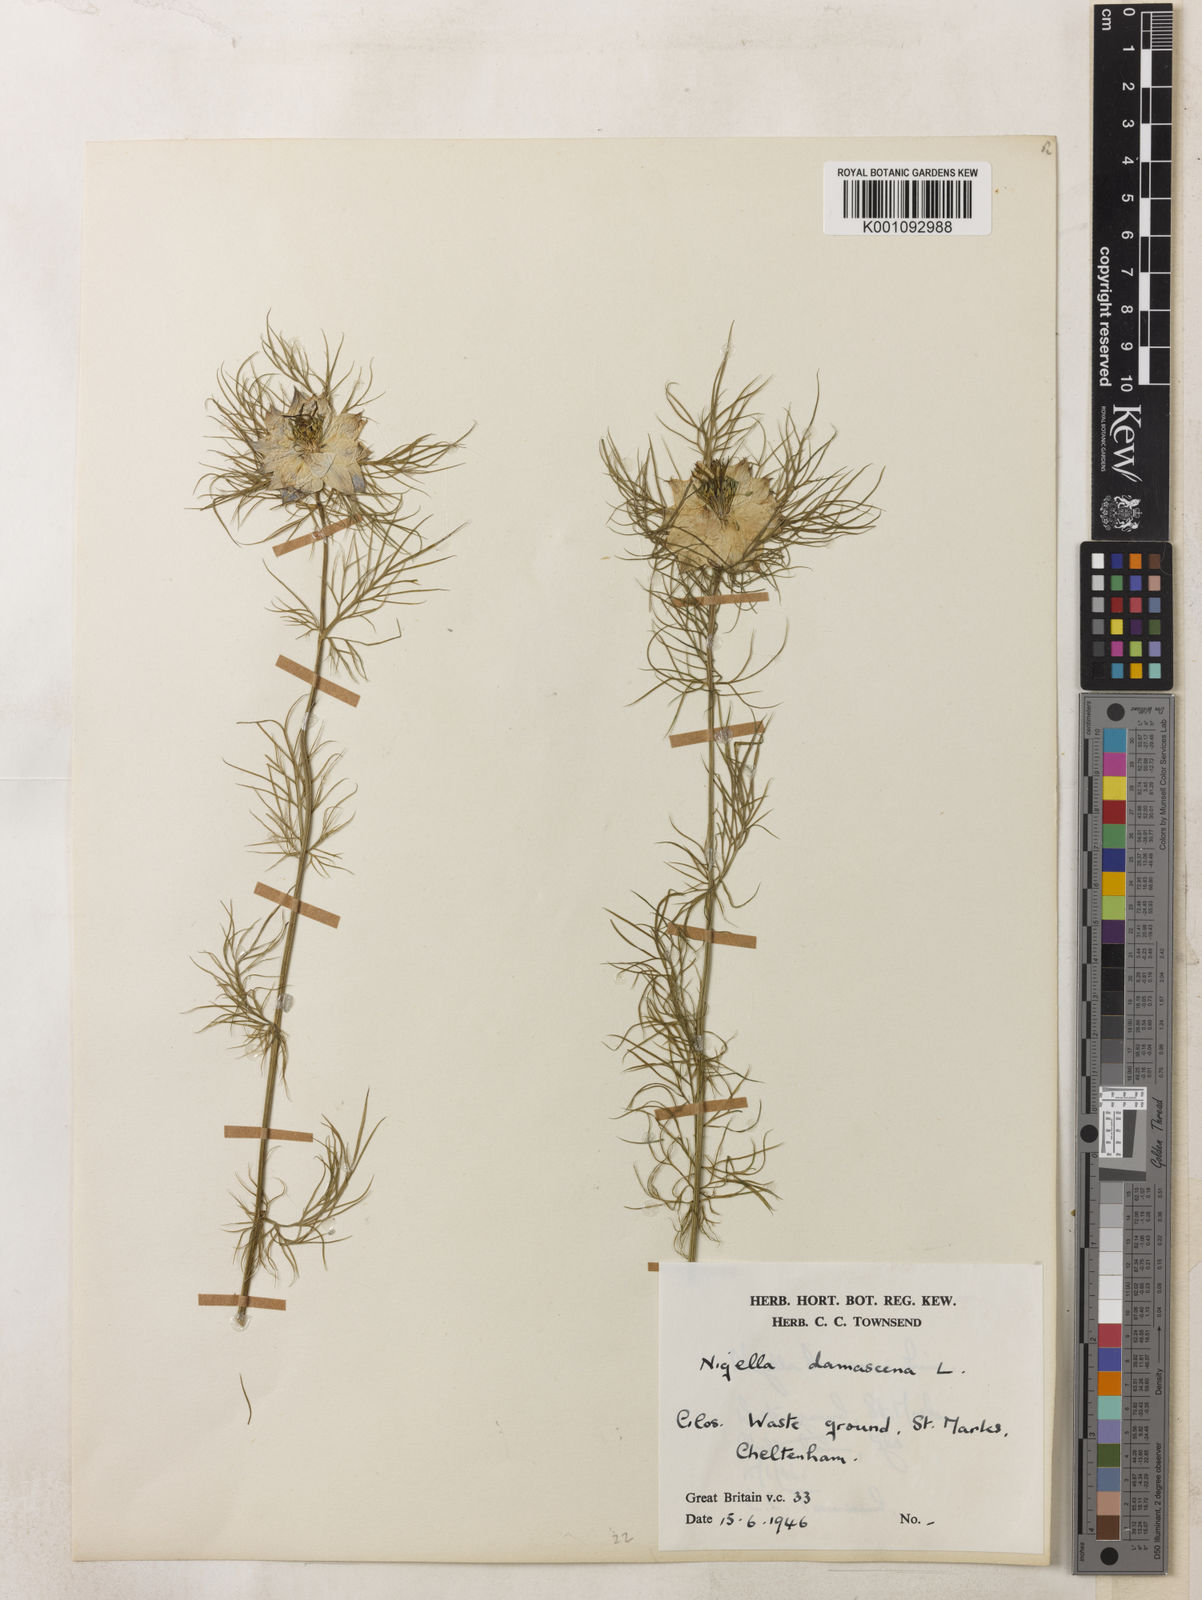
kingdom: Plantae
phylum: Tracheophyta
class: Magnoliopsida
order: Ranunculales
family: Ranunculaceae
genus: Nigella
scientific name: Nigella damascena
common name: Love-in-a-mist
